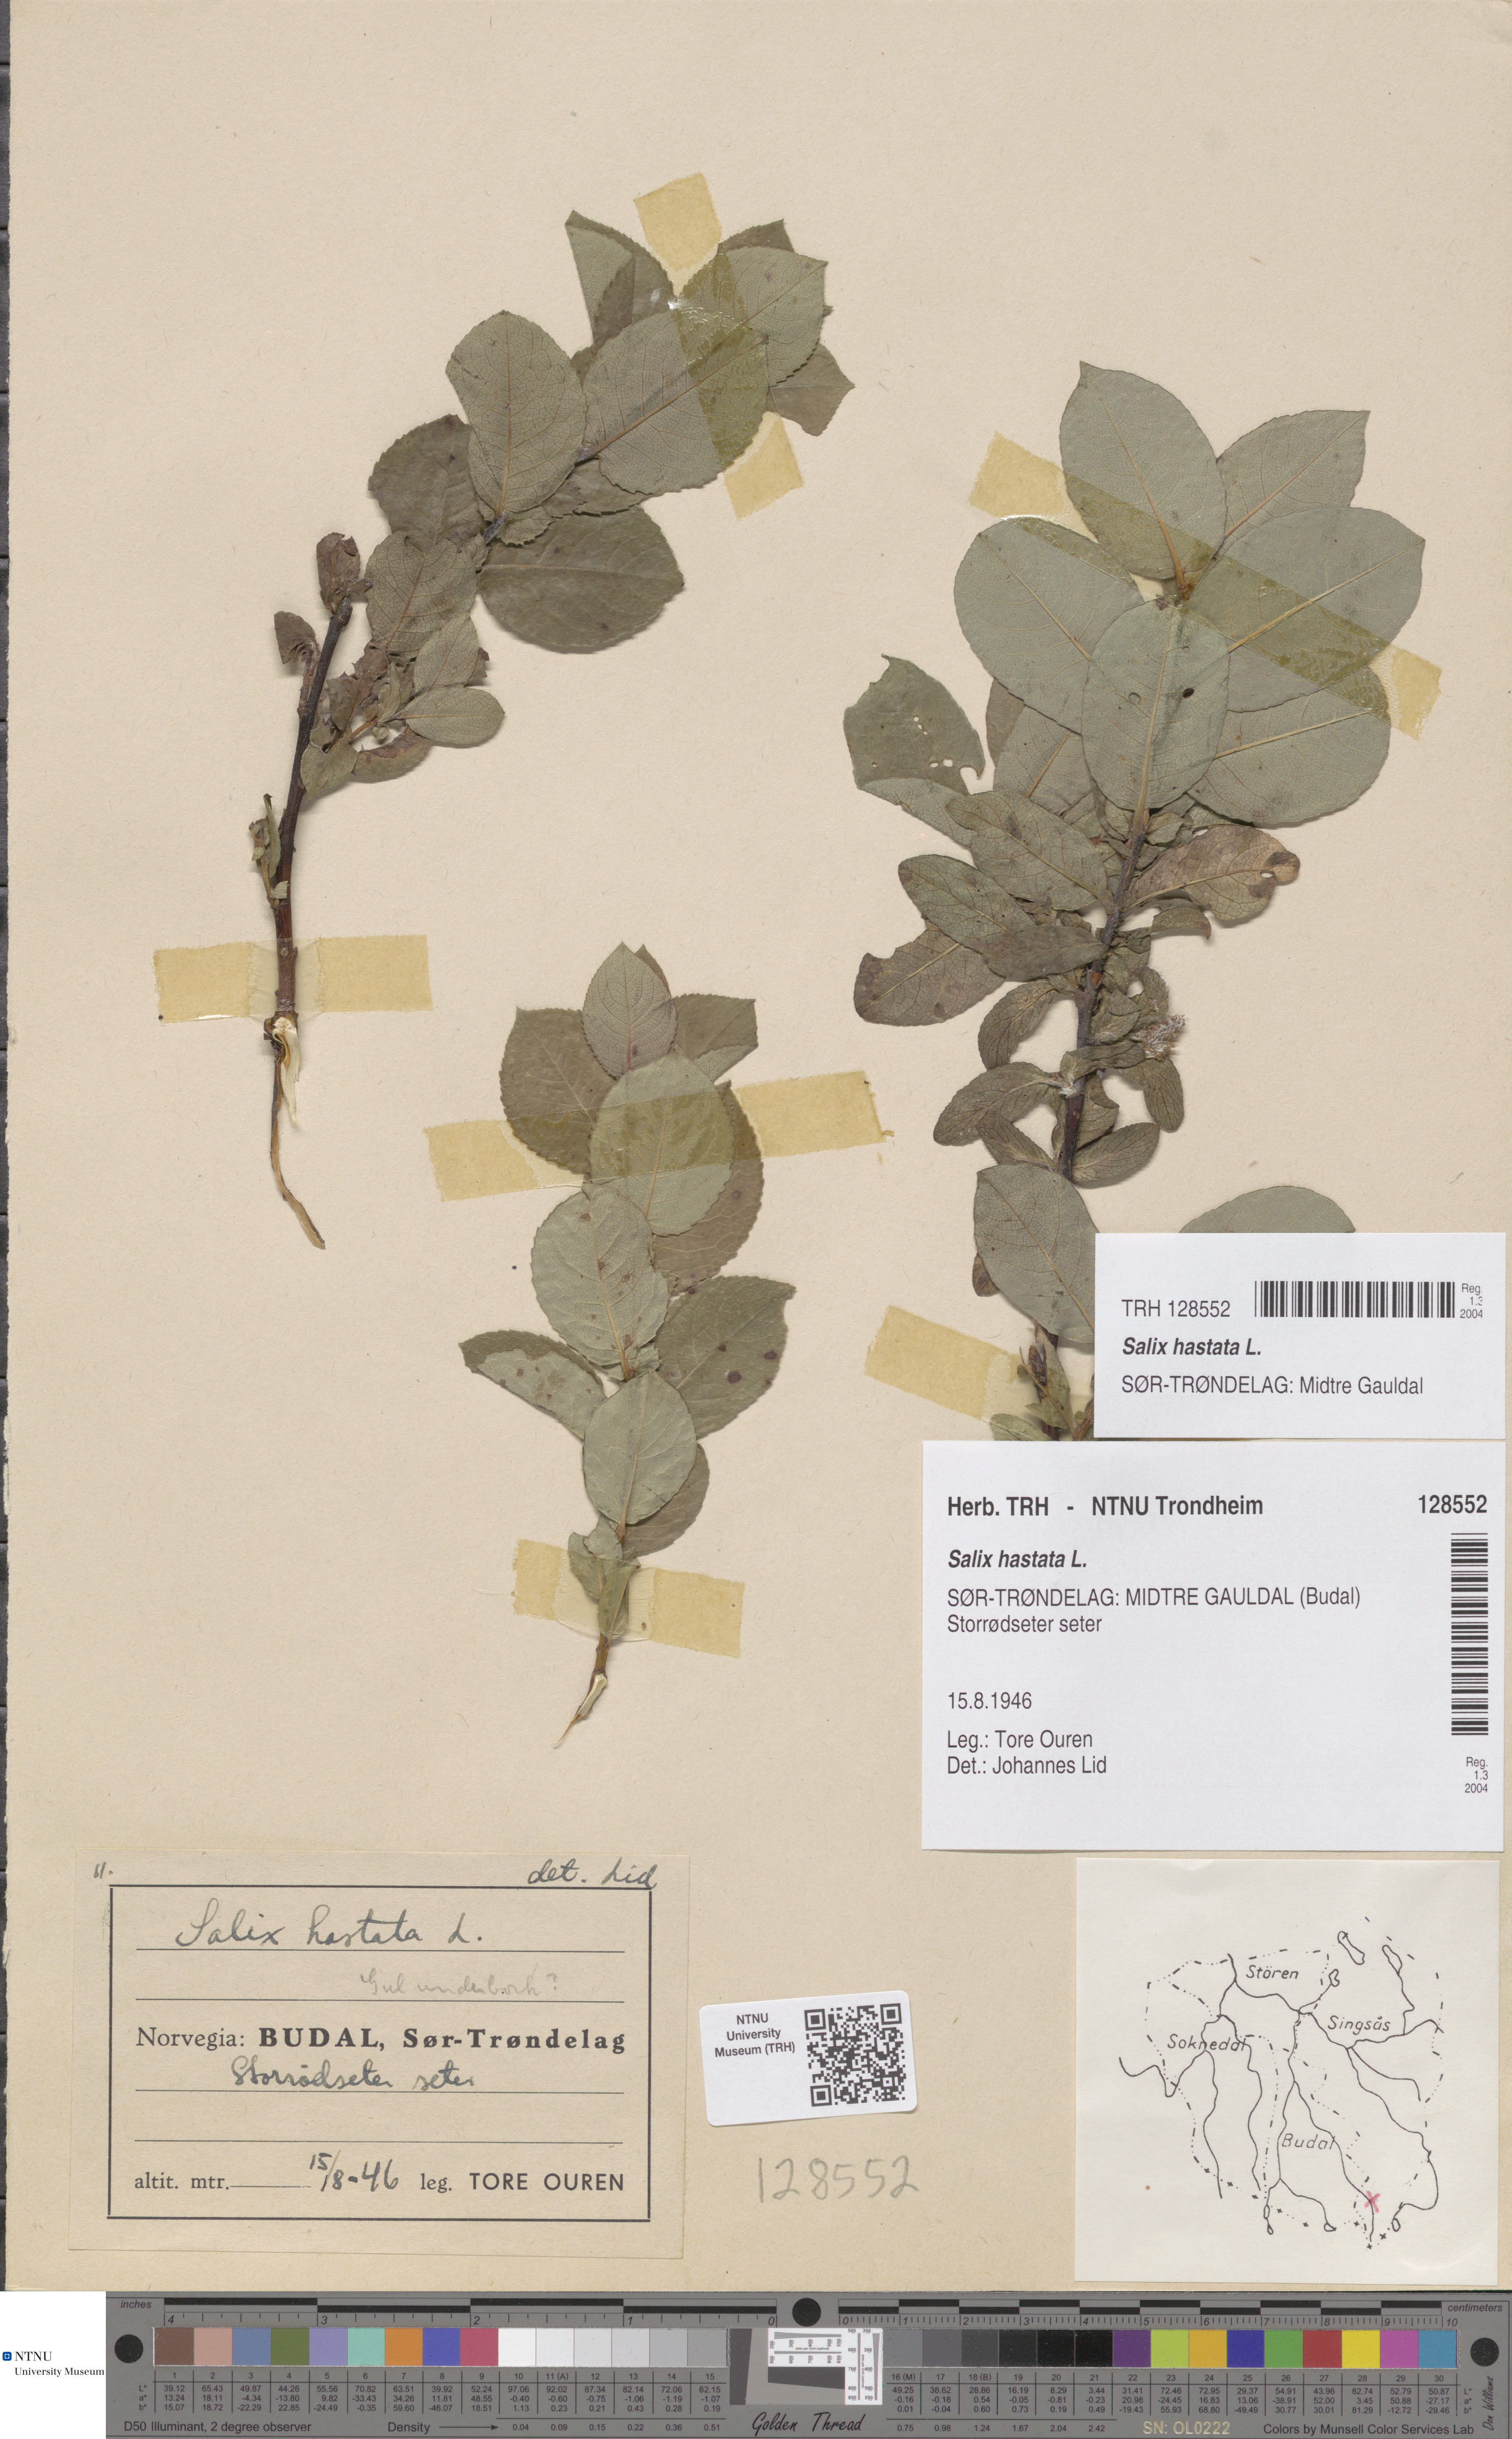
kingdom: Plantae
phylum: Tracheophyta
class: Magnoliopsida
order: Malpighiales
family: Salicaceae
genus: Salix
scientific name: Salix hastata
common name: Halberd willow
